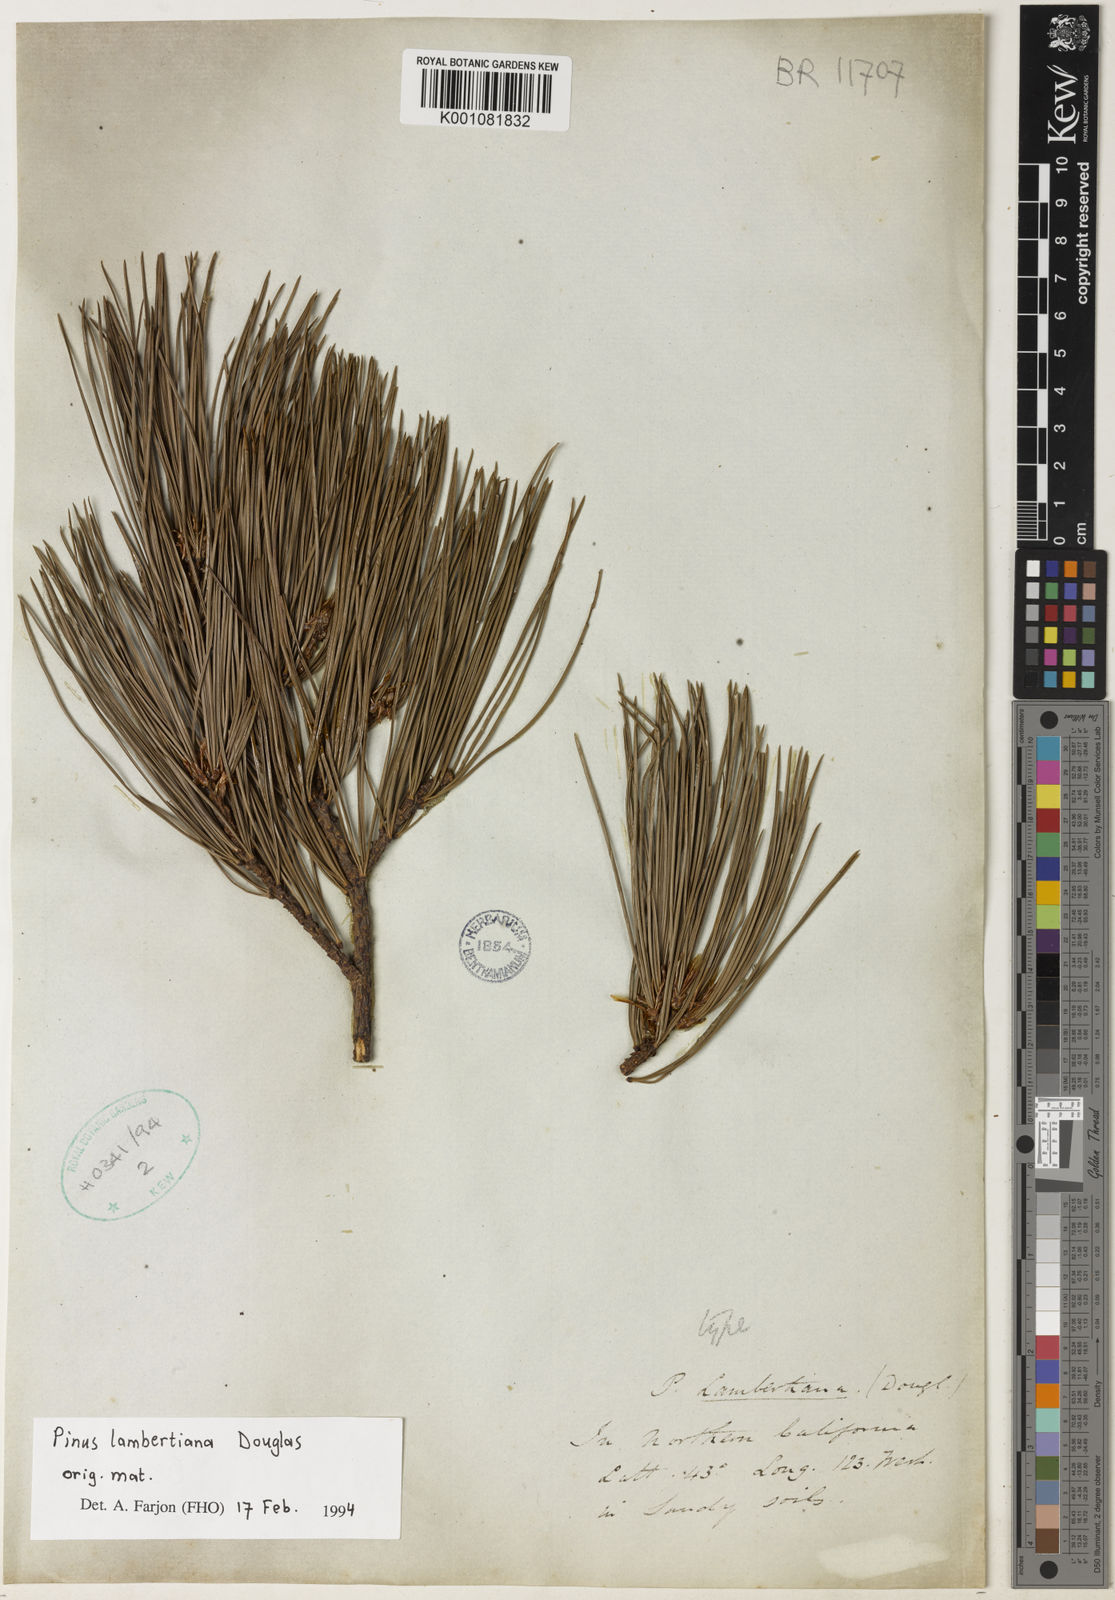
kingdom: Plantae
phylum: Tracheophyta
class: Pinopsida
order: Pinales
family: Pinaceae
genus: Pinus
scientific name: Pinus lambertiana
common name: Sugar pine
